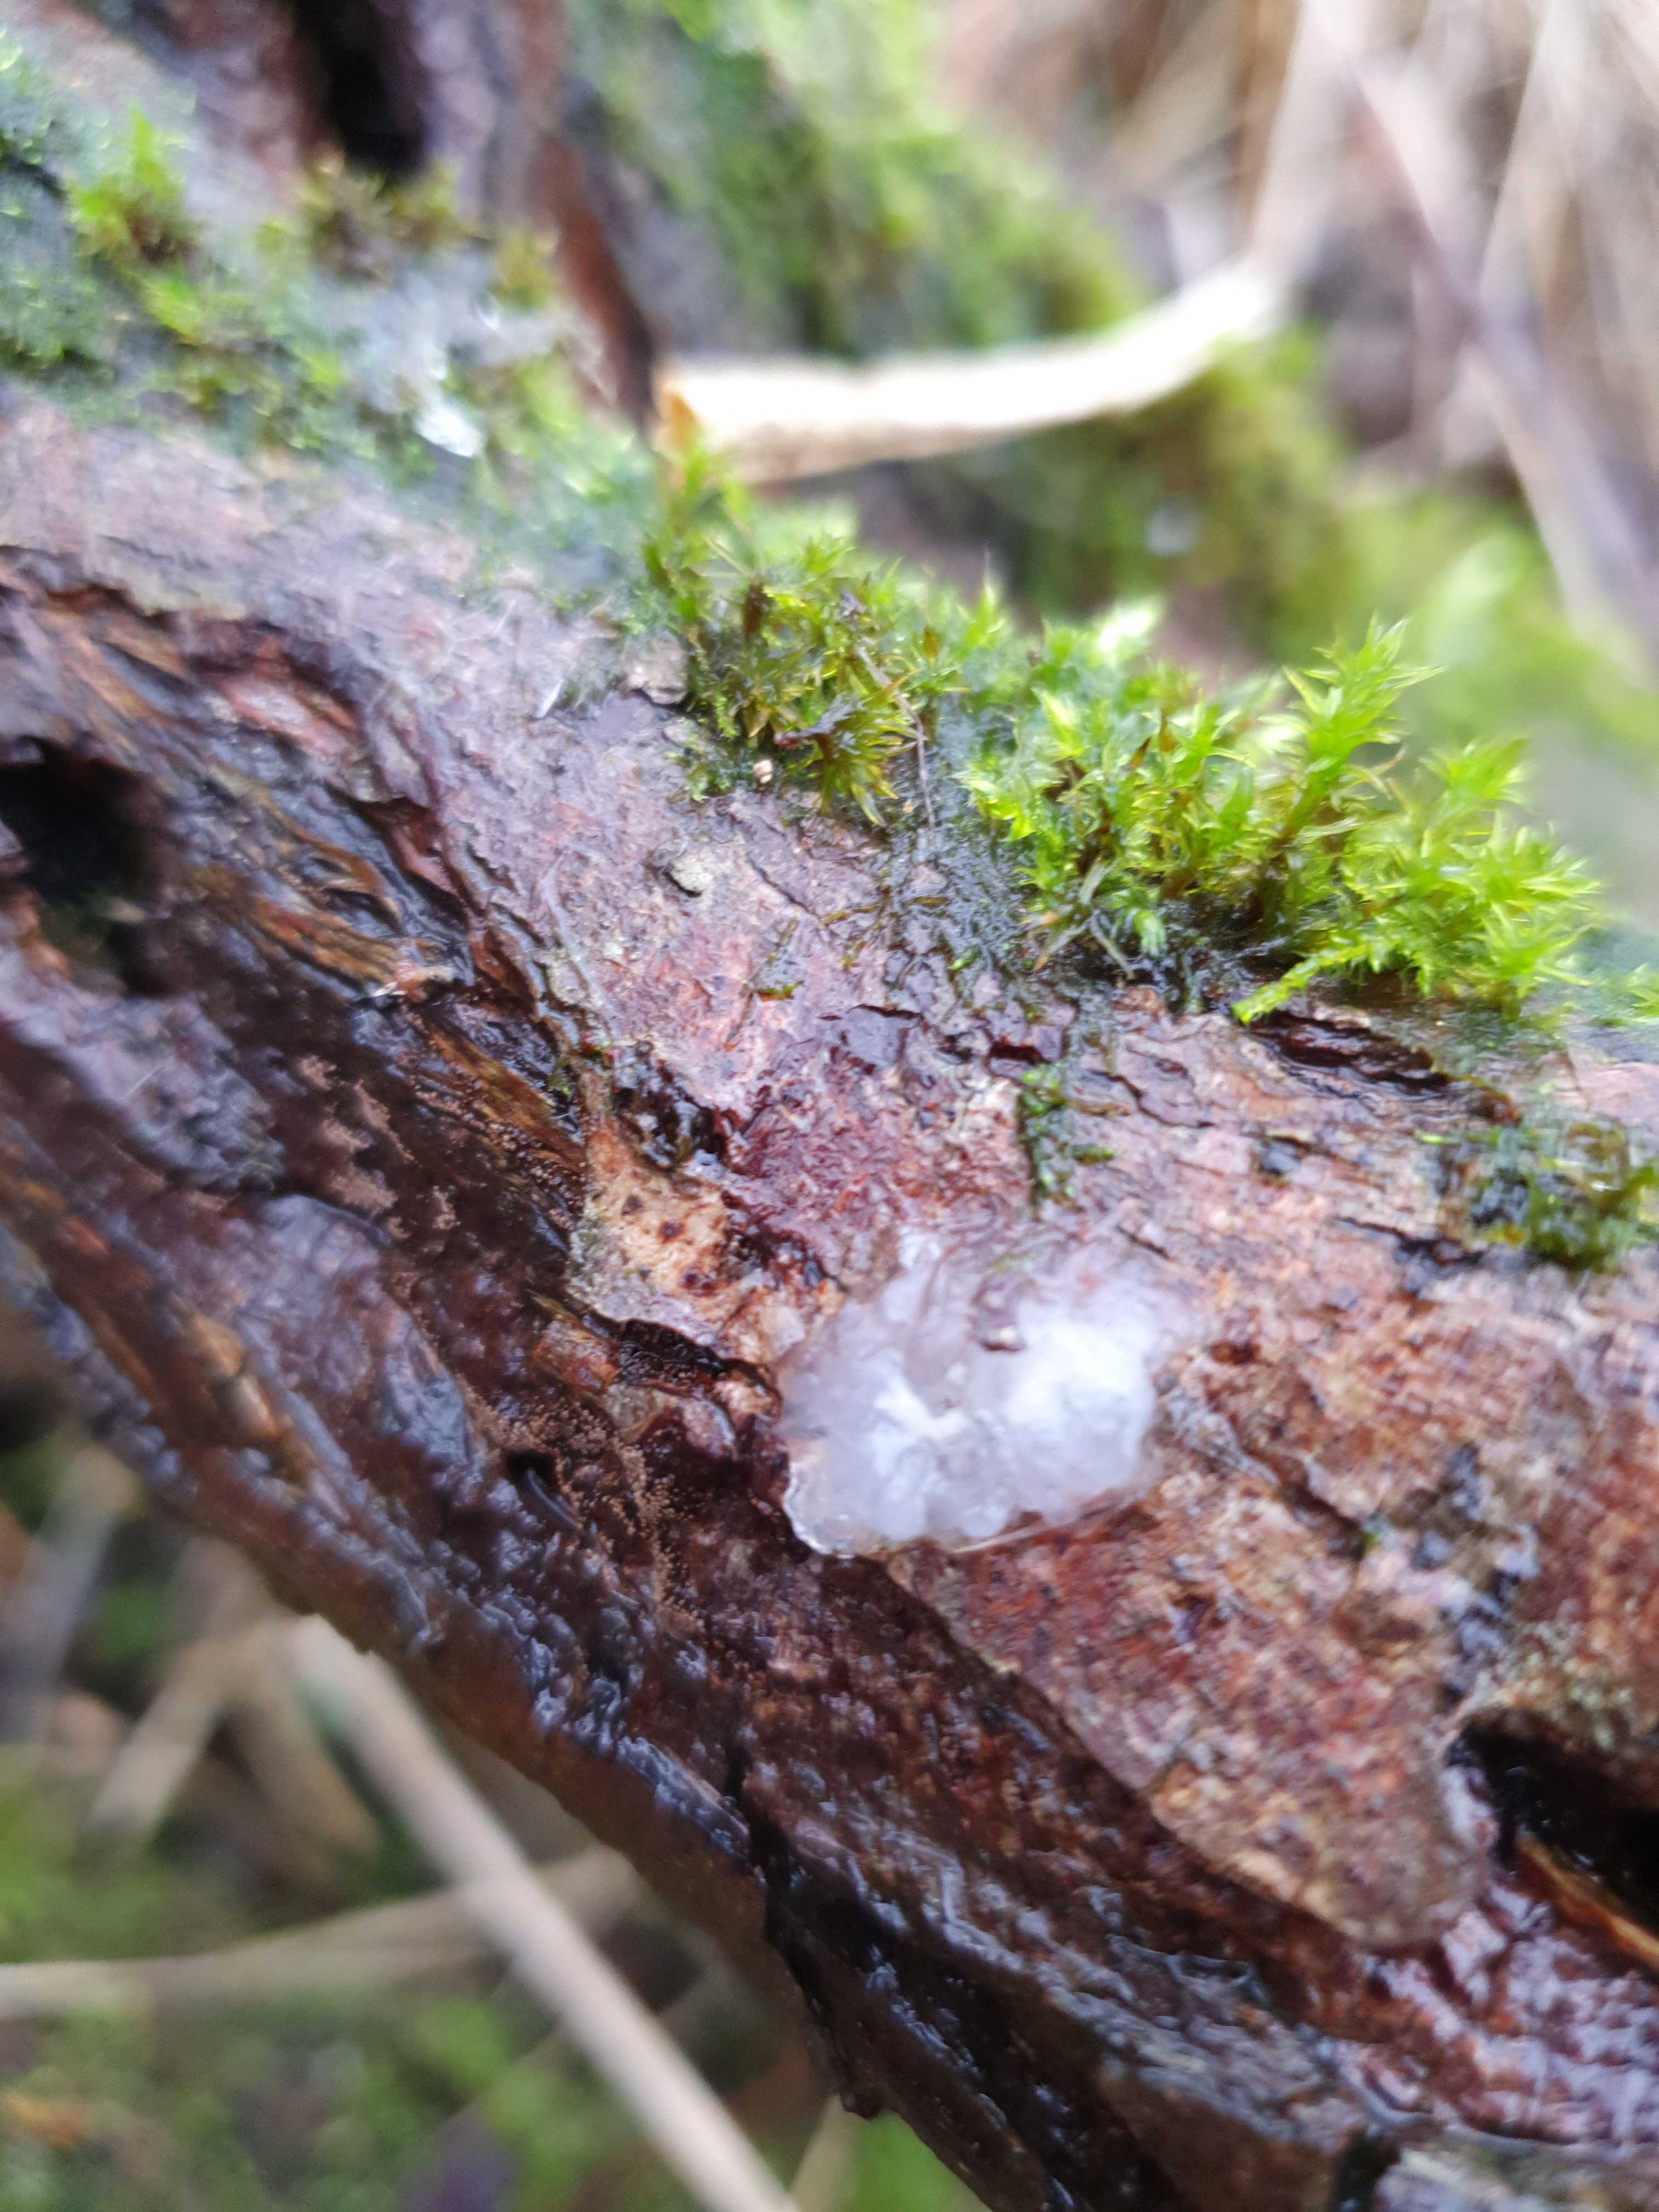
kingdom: Fungi
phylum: Basidiomycota
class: Agaricomycetes
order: Auriculariales
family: Hyaloriaceae
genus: Myxarium
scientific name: Myxarium nucleatum
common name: klar bævretop
